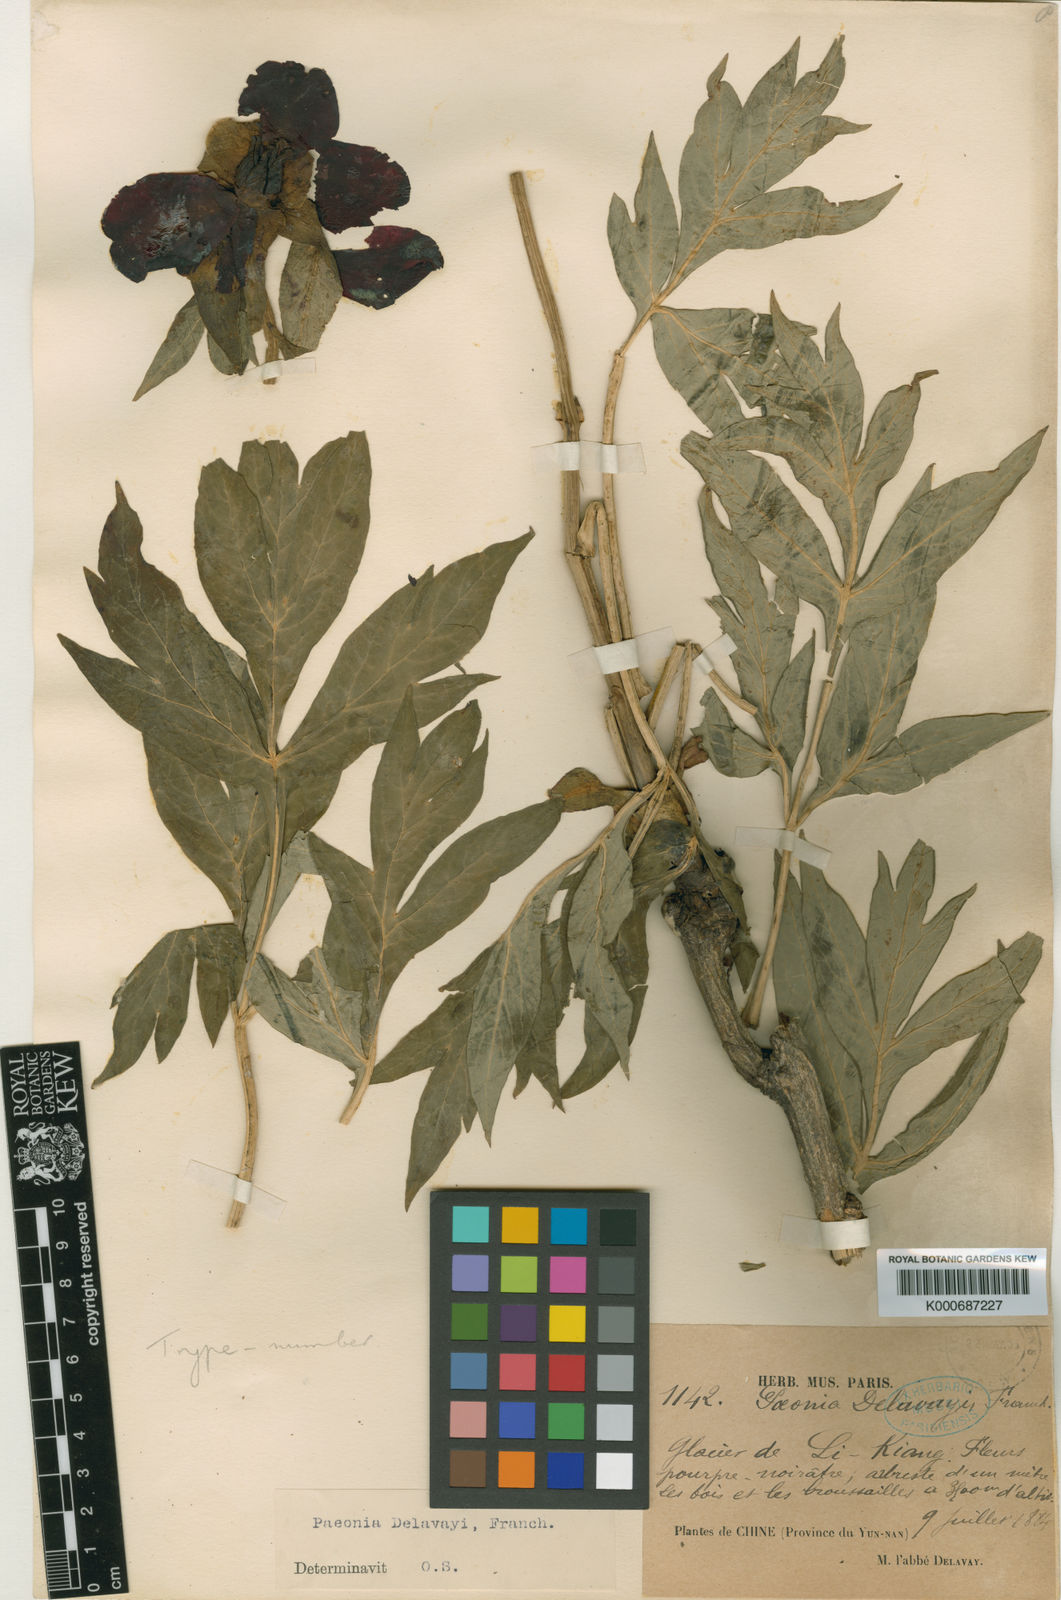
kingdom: Plantae
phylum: Tracheophyta
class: Magnoliopsida
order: Saxifragales
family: Paeoniaceae
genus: Paeonia
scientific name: Paeonia delavayi
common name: Dian mu dan
